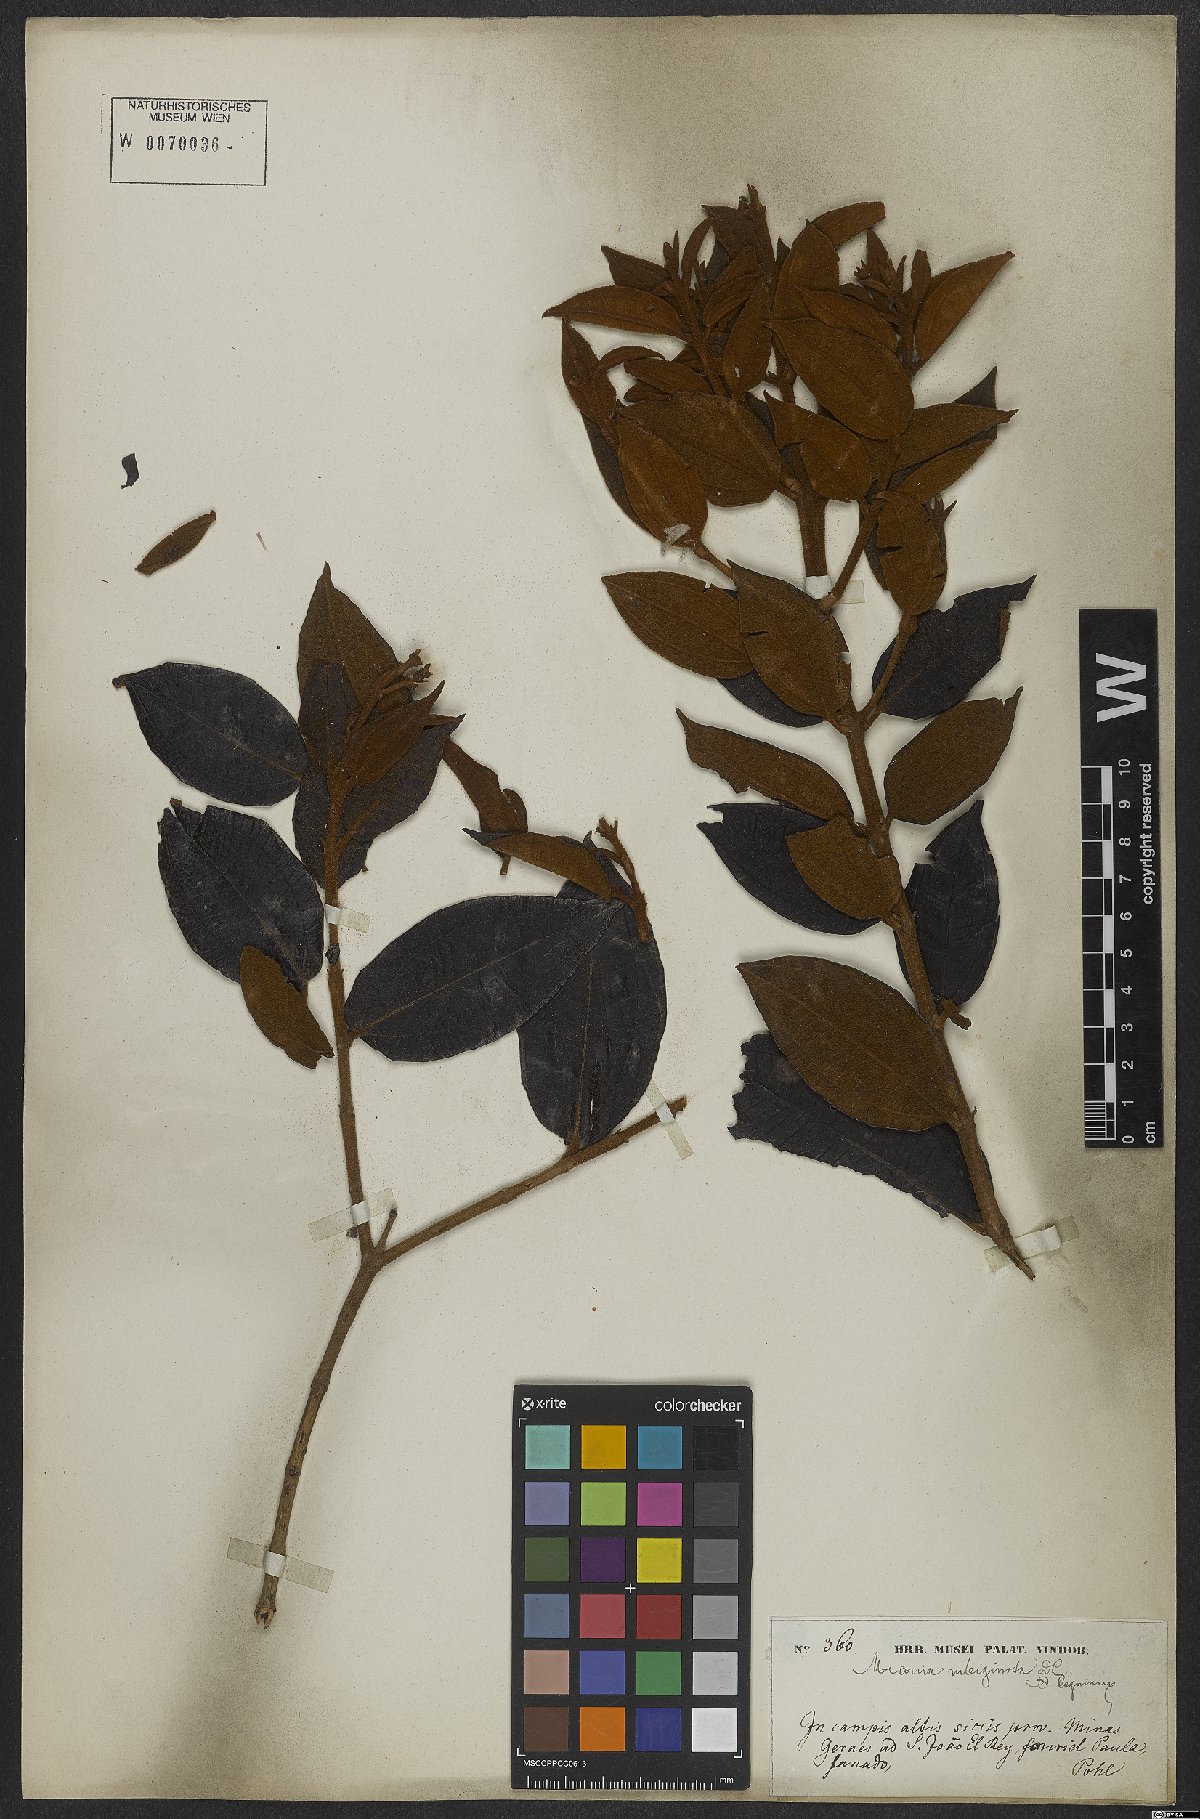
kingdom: Plantae
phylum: Tracheophyta
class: Magnoliopsida
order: Myrtales
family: Melastomataceae
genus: Miconia
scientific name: Miconia rubiginosa
